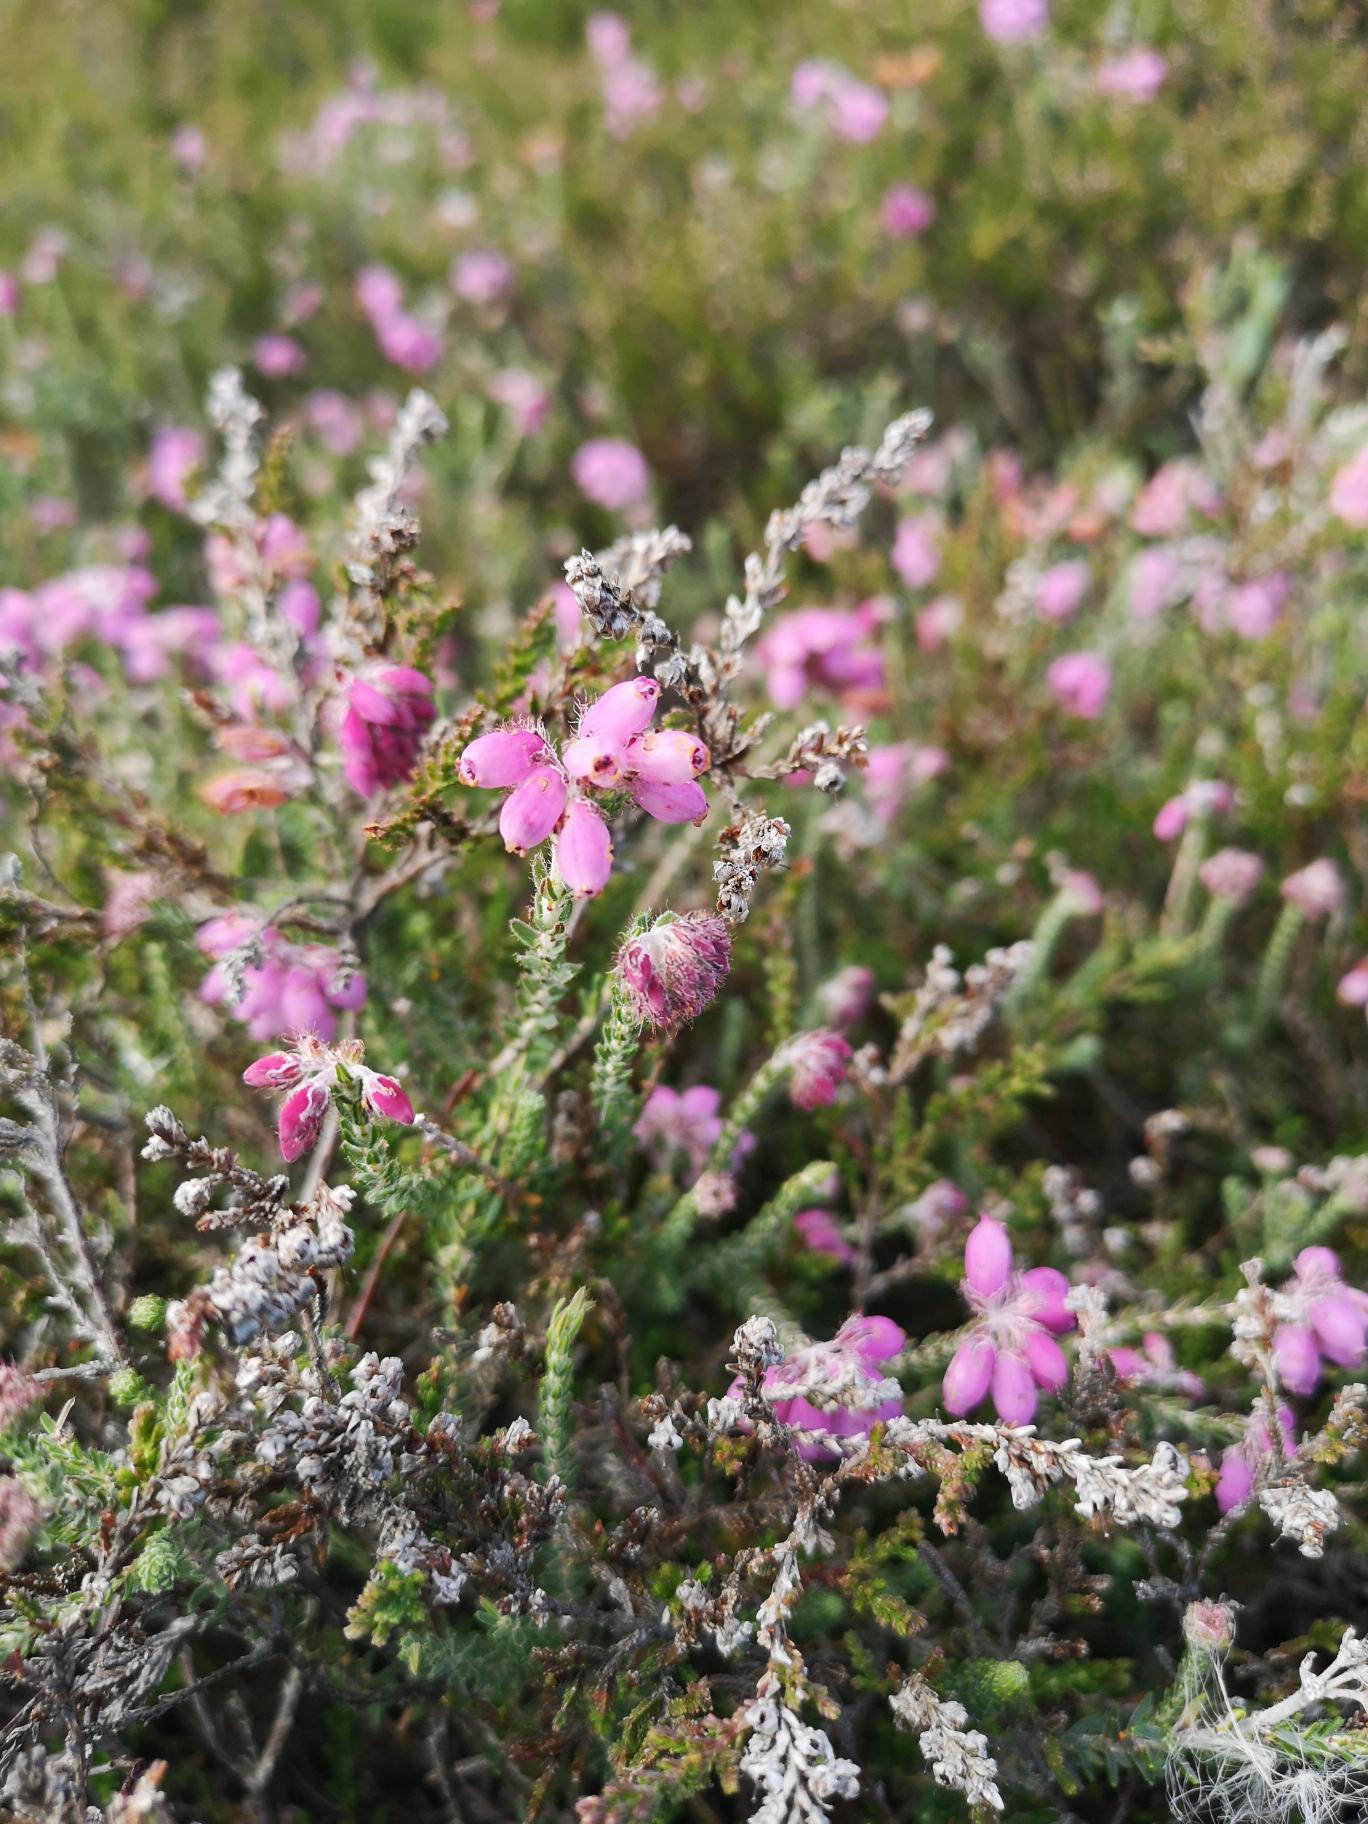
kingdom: Plantae
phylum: Tracheophyta
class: Magnoliopsida
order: Ericales
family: Ericaceae
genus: Erica
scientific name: Erica tetralix
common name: Klokkelyng
